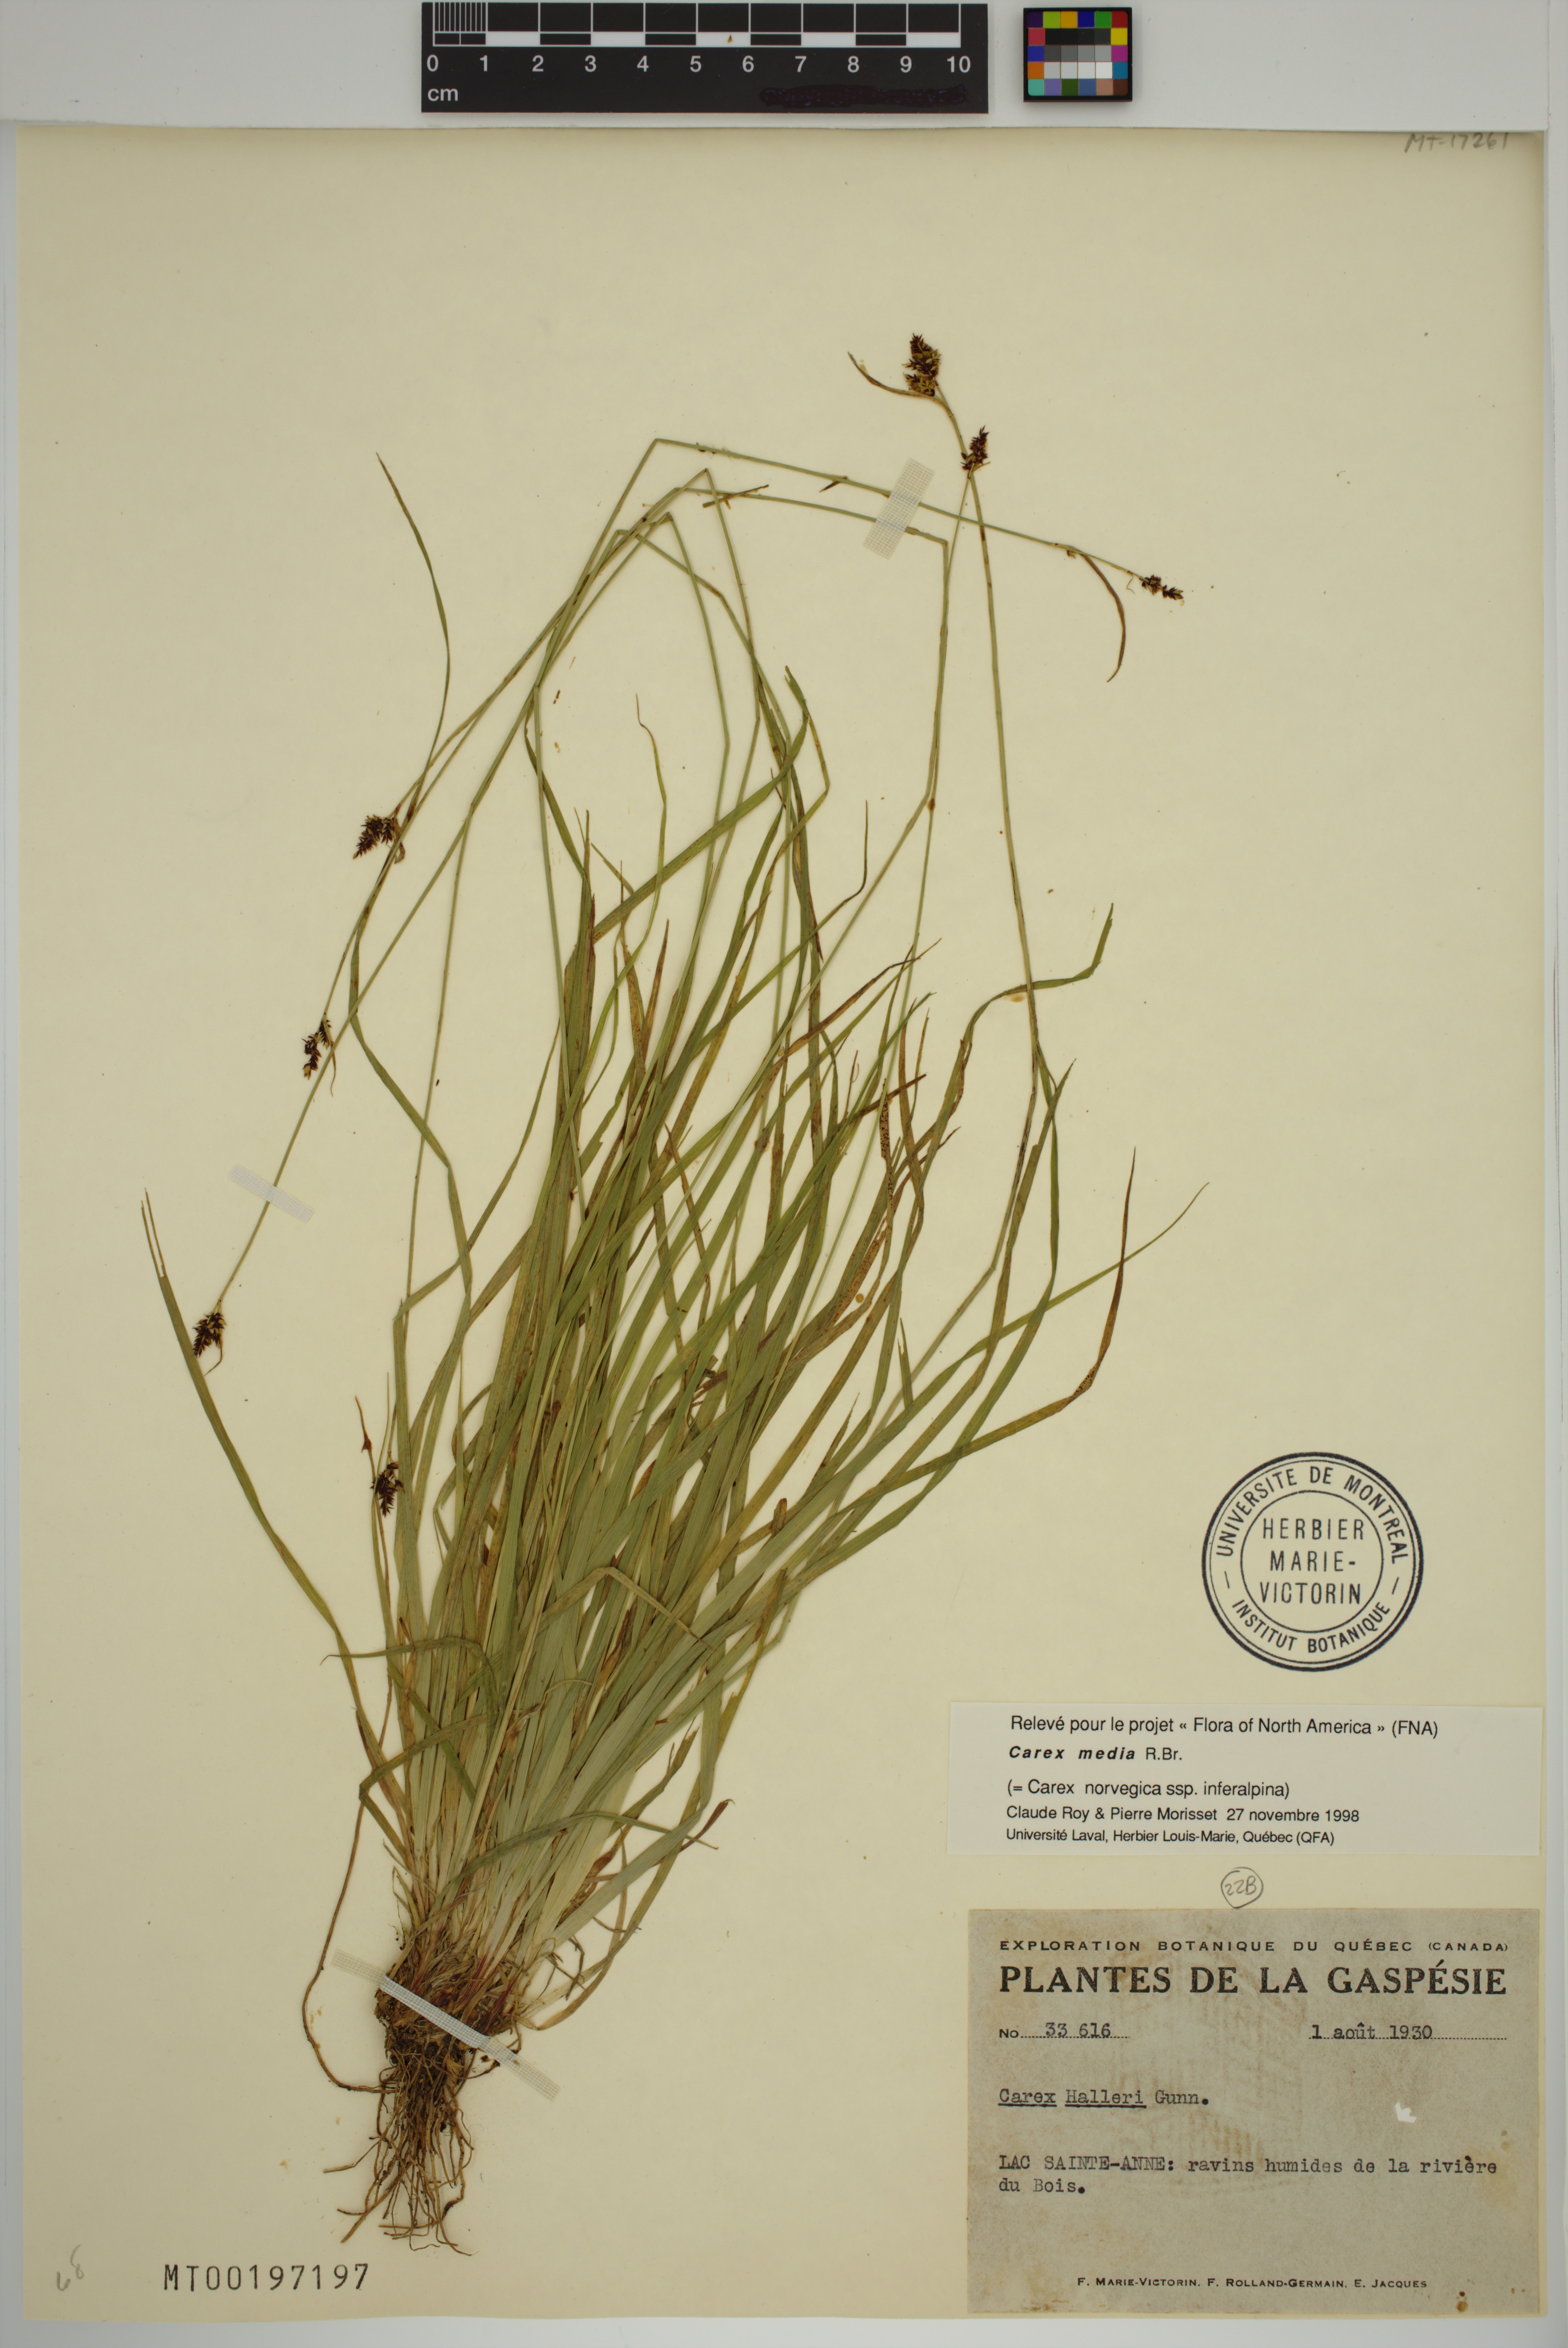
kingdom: Plantae
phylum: Tracheophyta
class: Liliopsida
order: Poales
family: Cyperaceae
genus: Carex
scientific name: Carex media
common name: Alpine sedge
